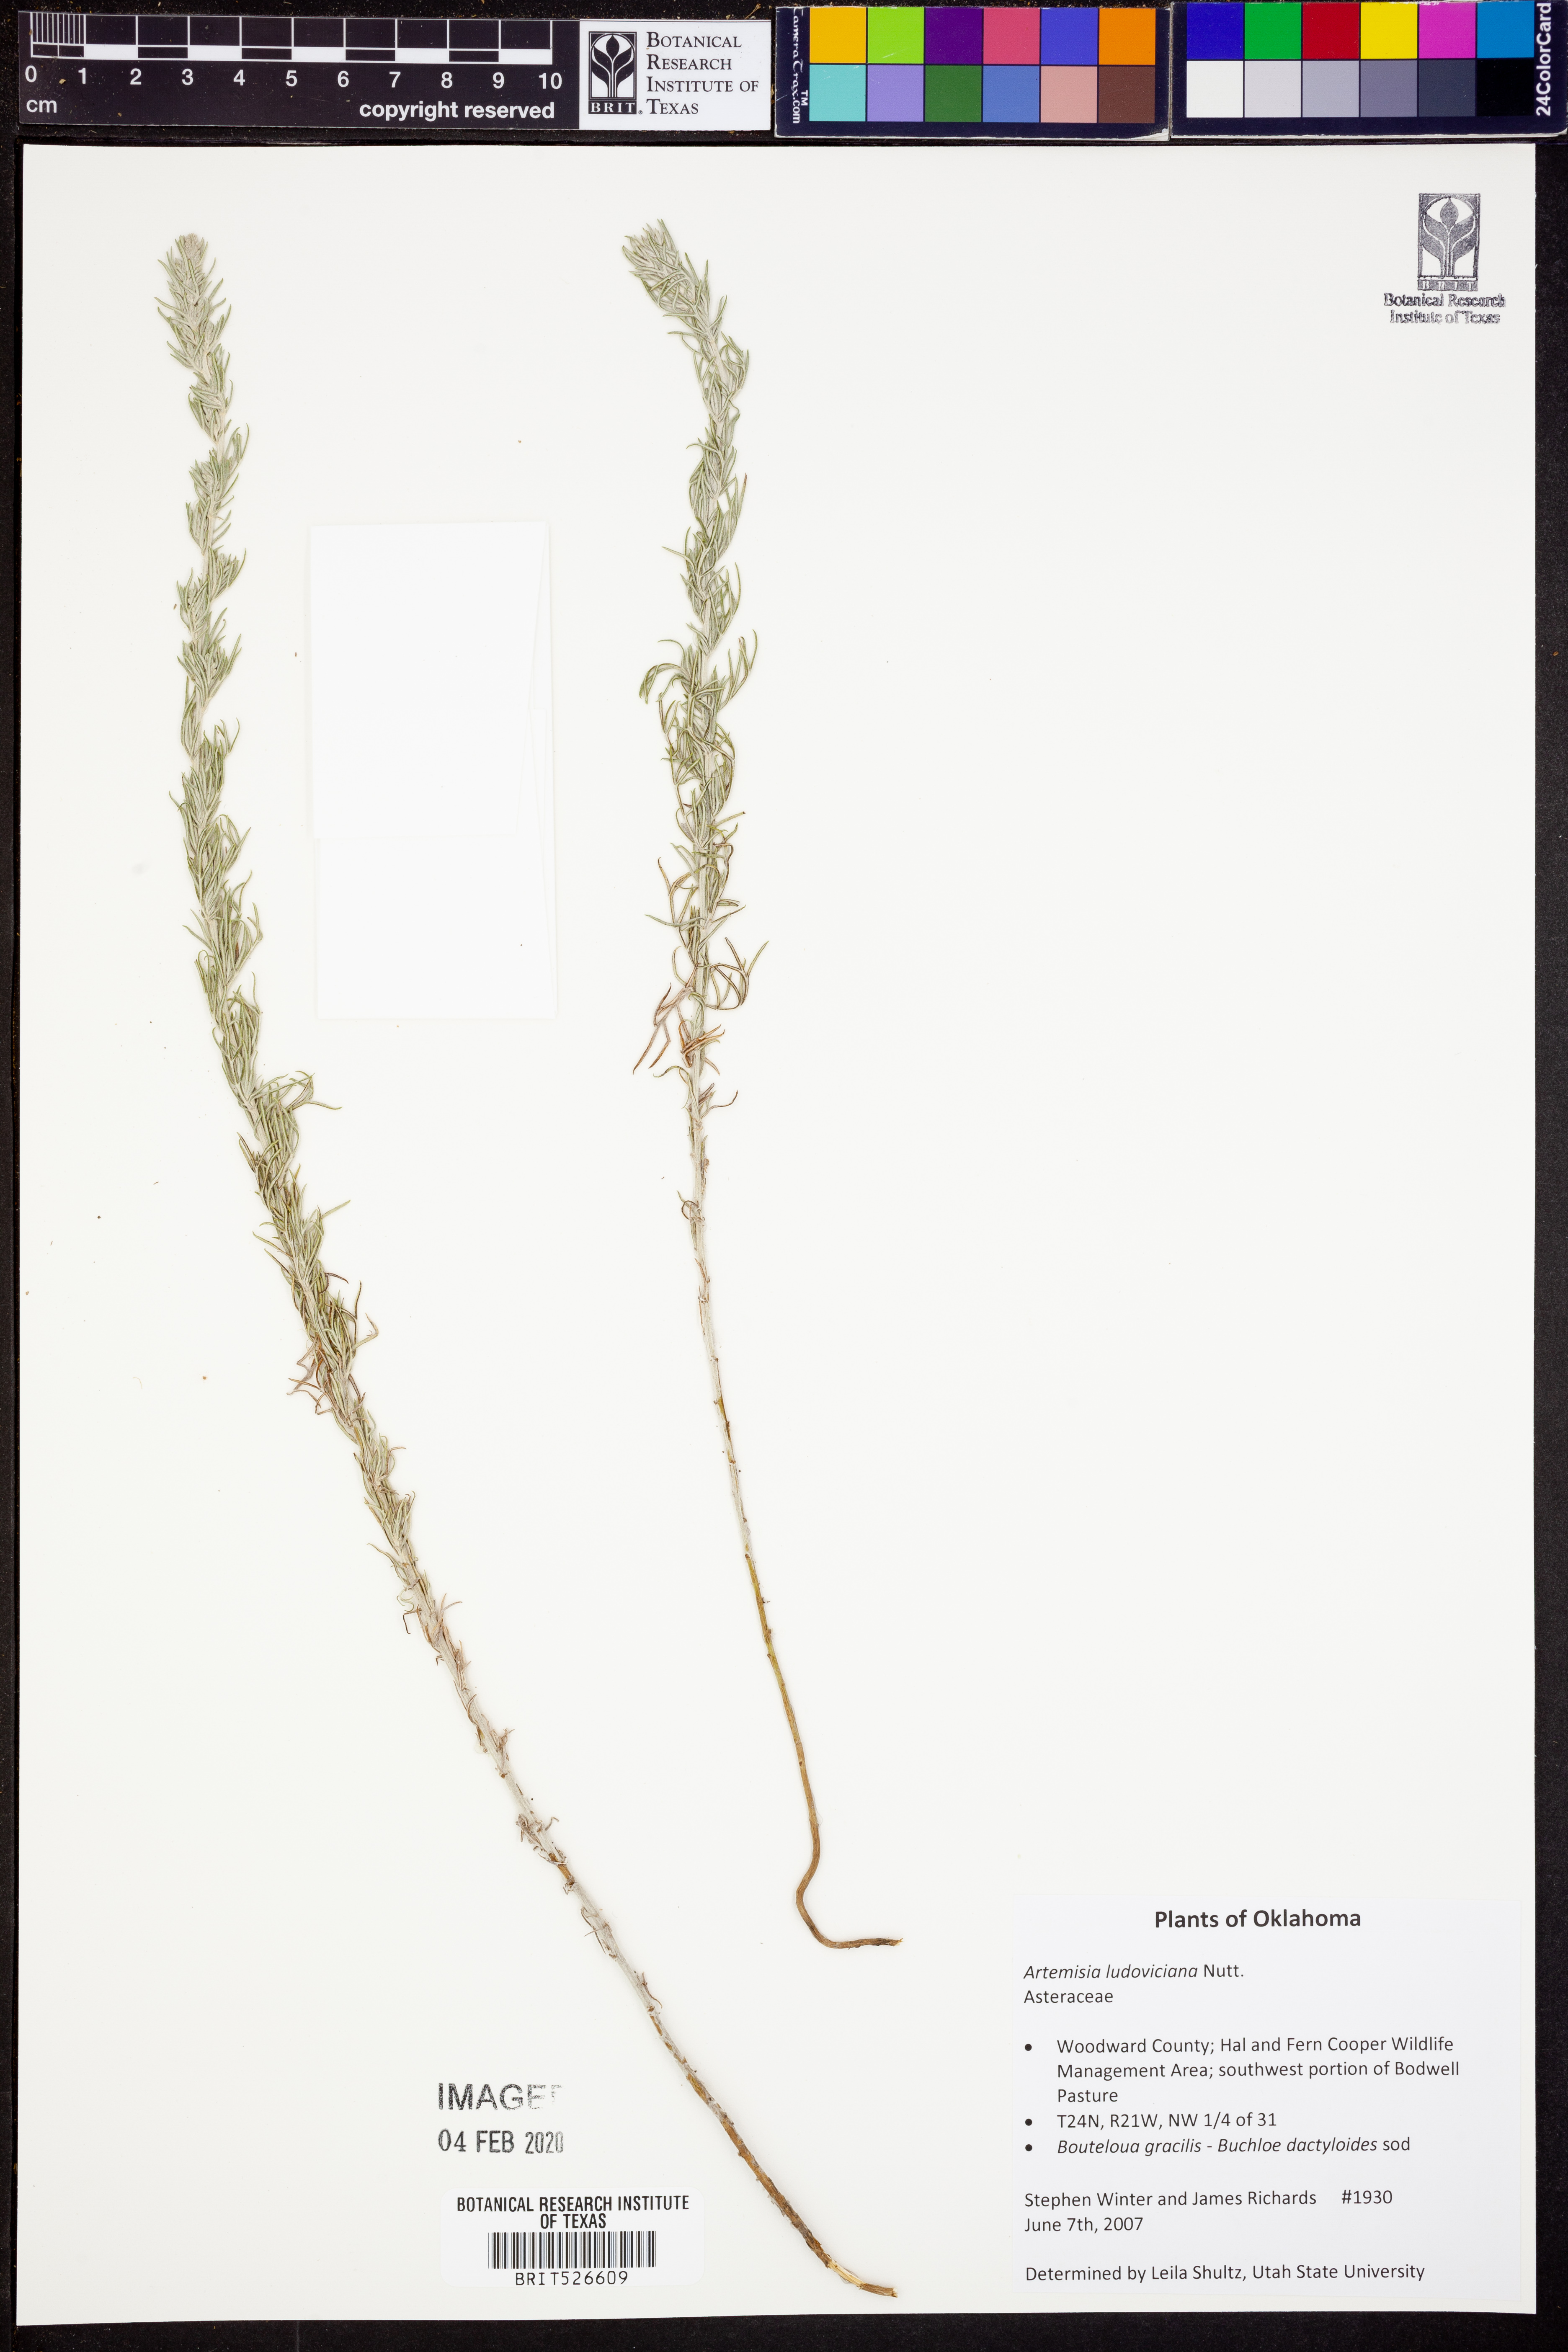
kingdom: Plantae
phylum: Tracheophyta
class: Magnoliopsida
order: Asterales
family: Asteraceae
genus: Artemisia
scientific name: Artemisia ludoviciana
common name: Western mugwort
